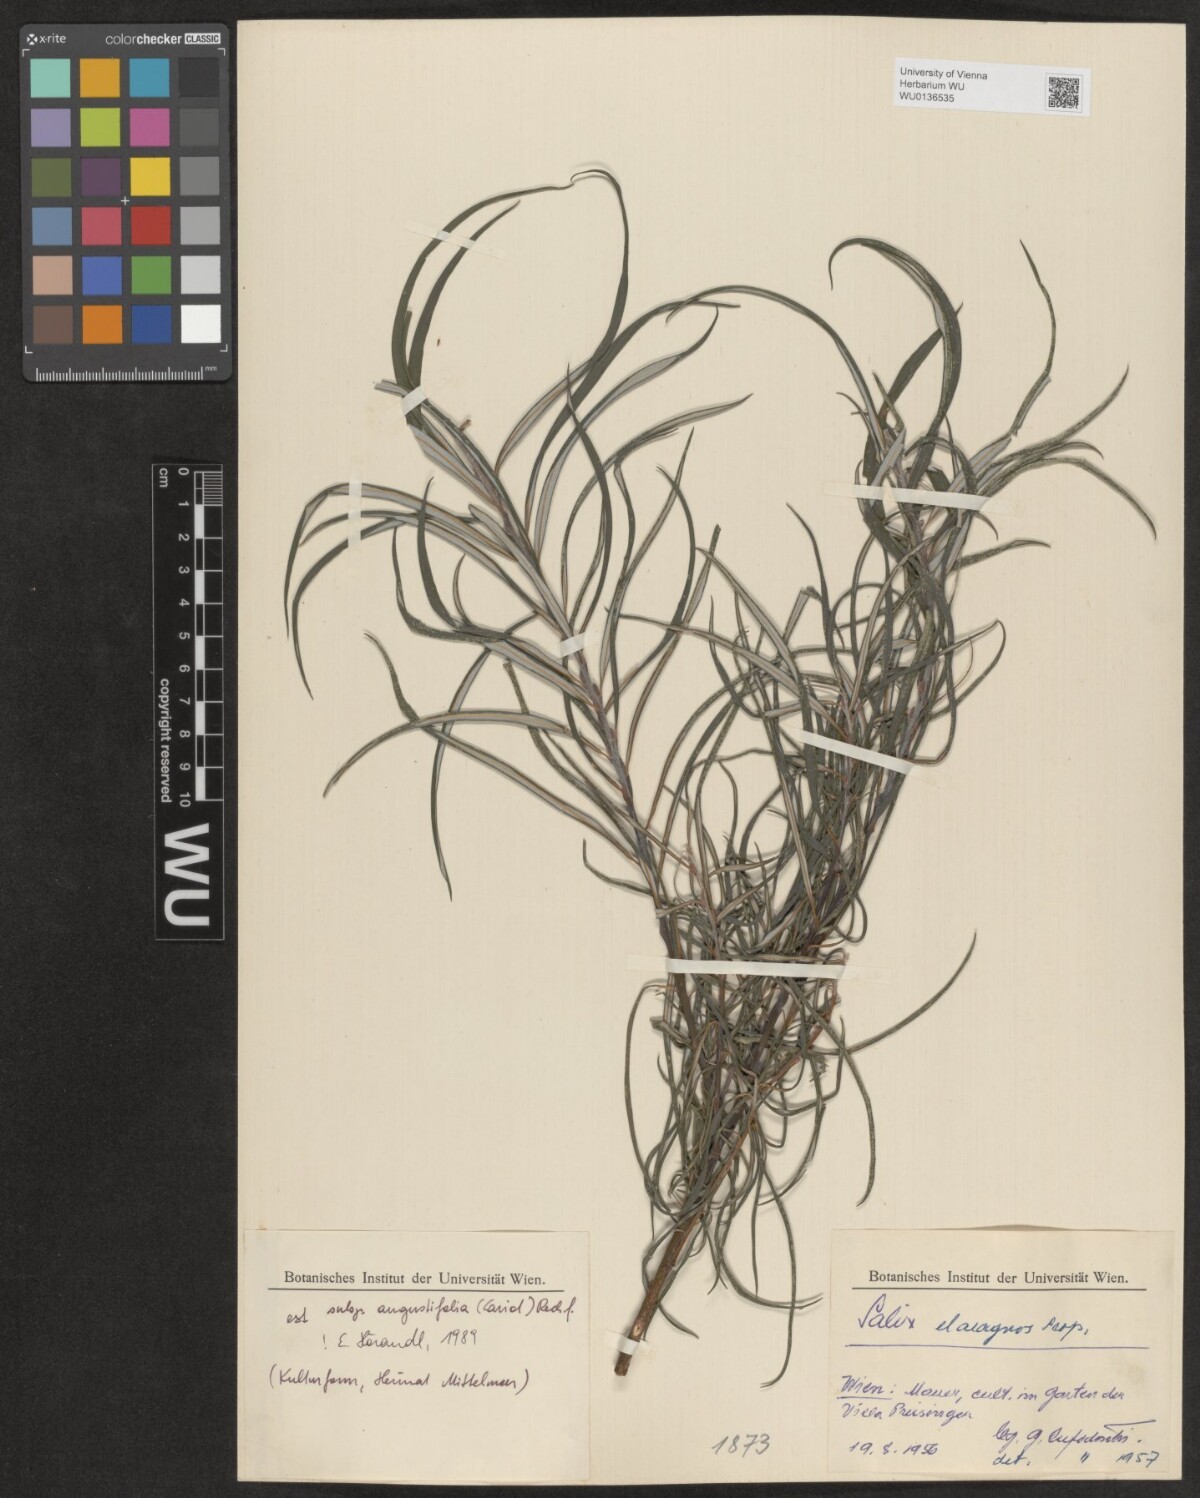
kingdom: Plantae
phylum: Tracheophyta
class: Magnoliopsida
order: Malpighiales
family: Salicaceae
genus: Salix
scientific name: Salix eleagnos
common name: Elaeagnus willow
